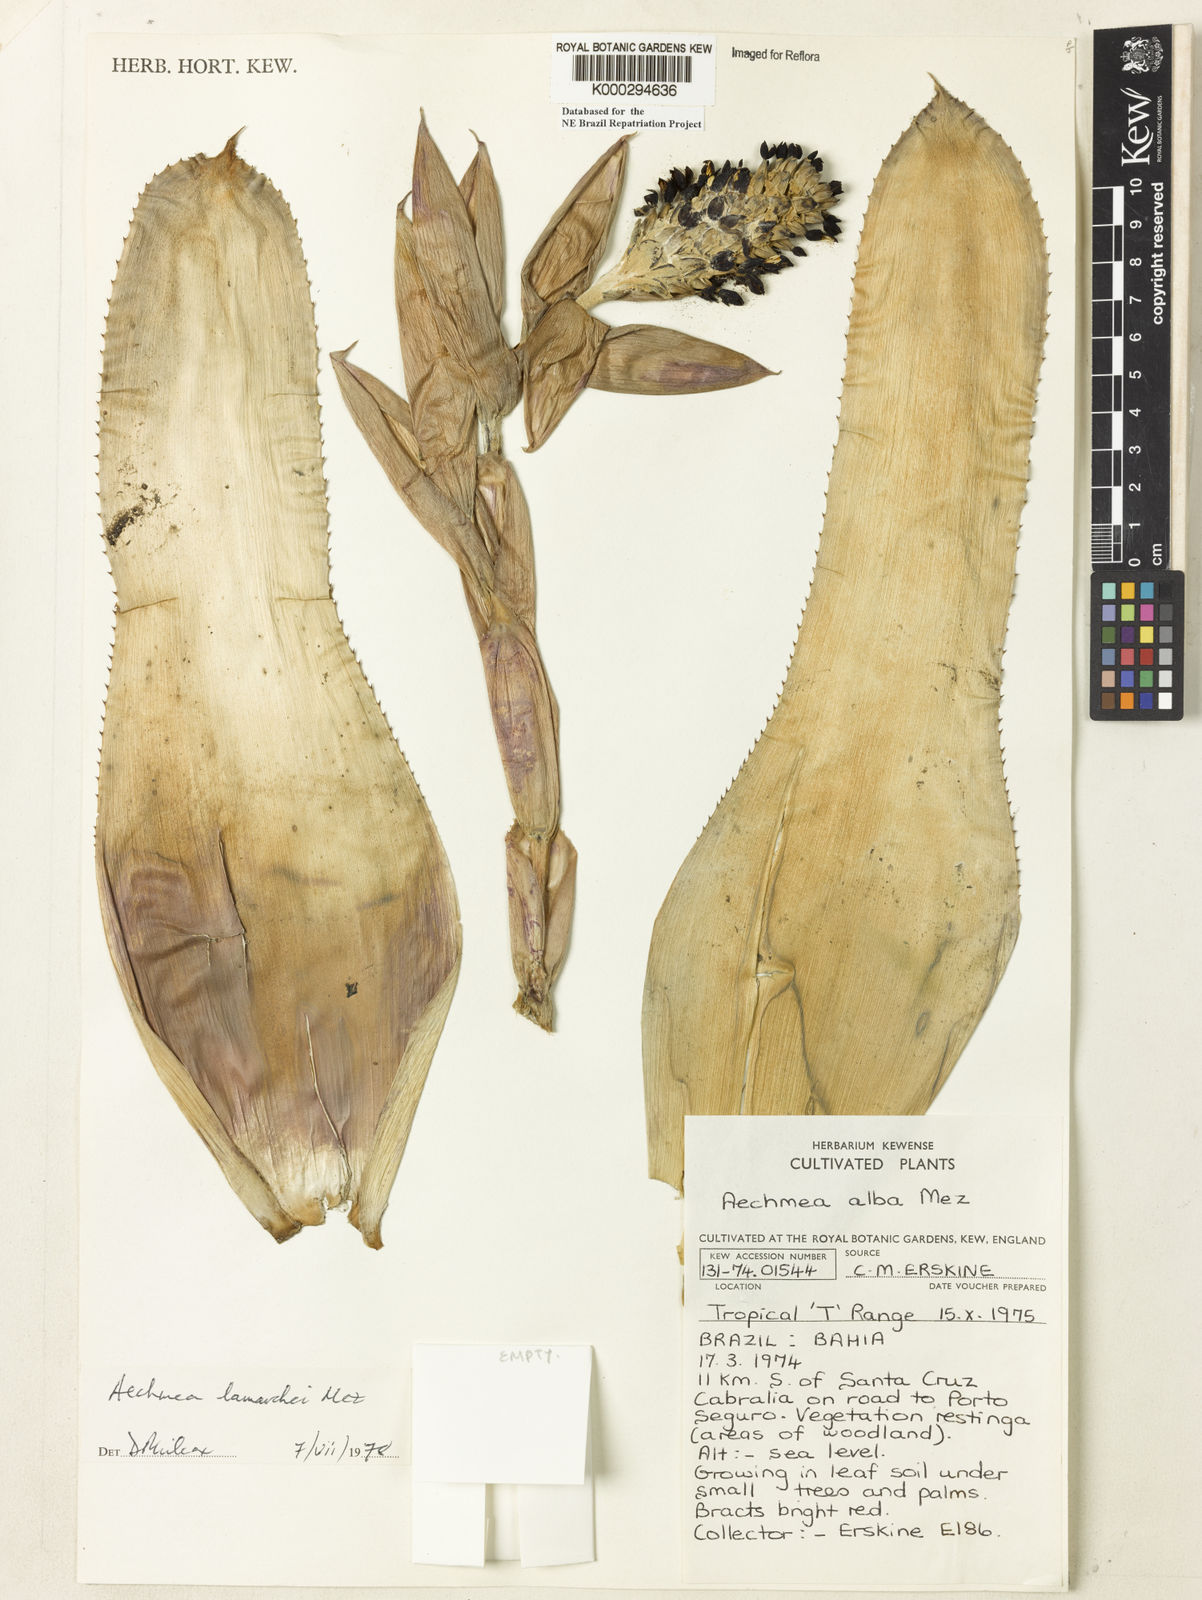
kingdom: Plantae
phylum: Tracheophyta
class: Liliopsida
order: Poales
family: Bromeliaceae
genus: Aechmea
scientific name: Aechmea lamarchei
